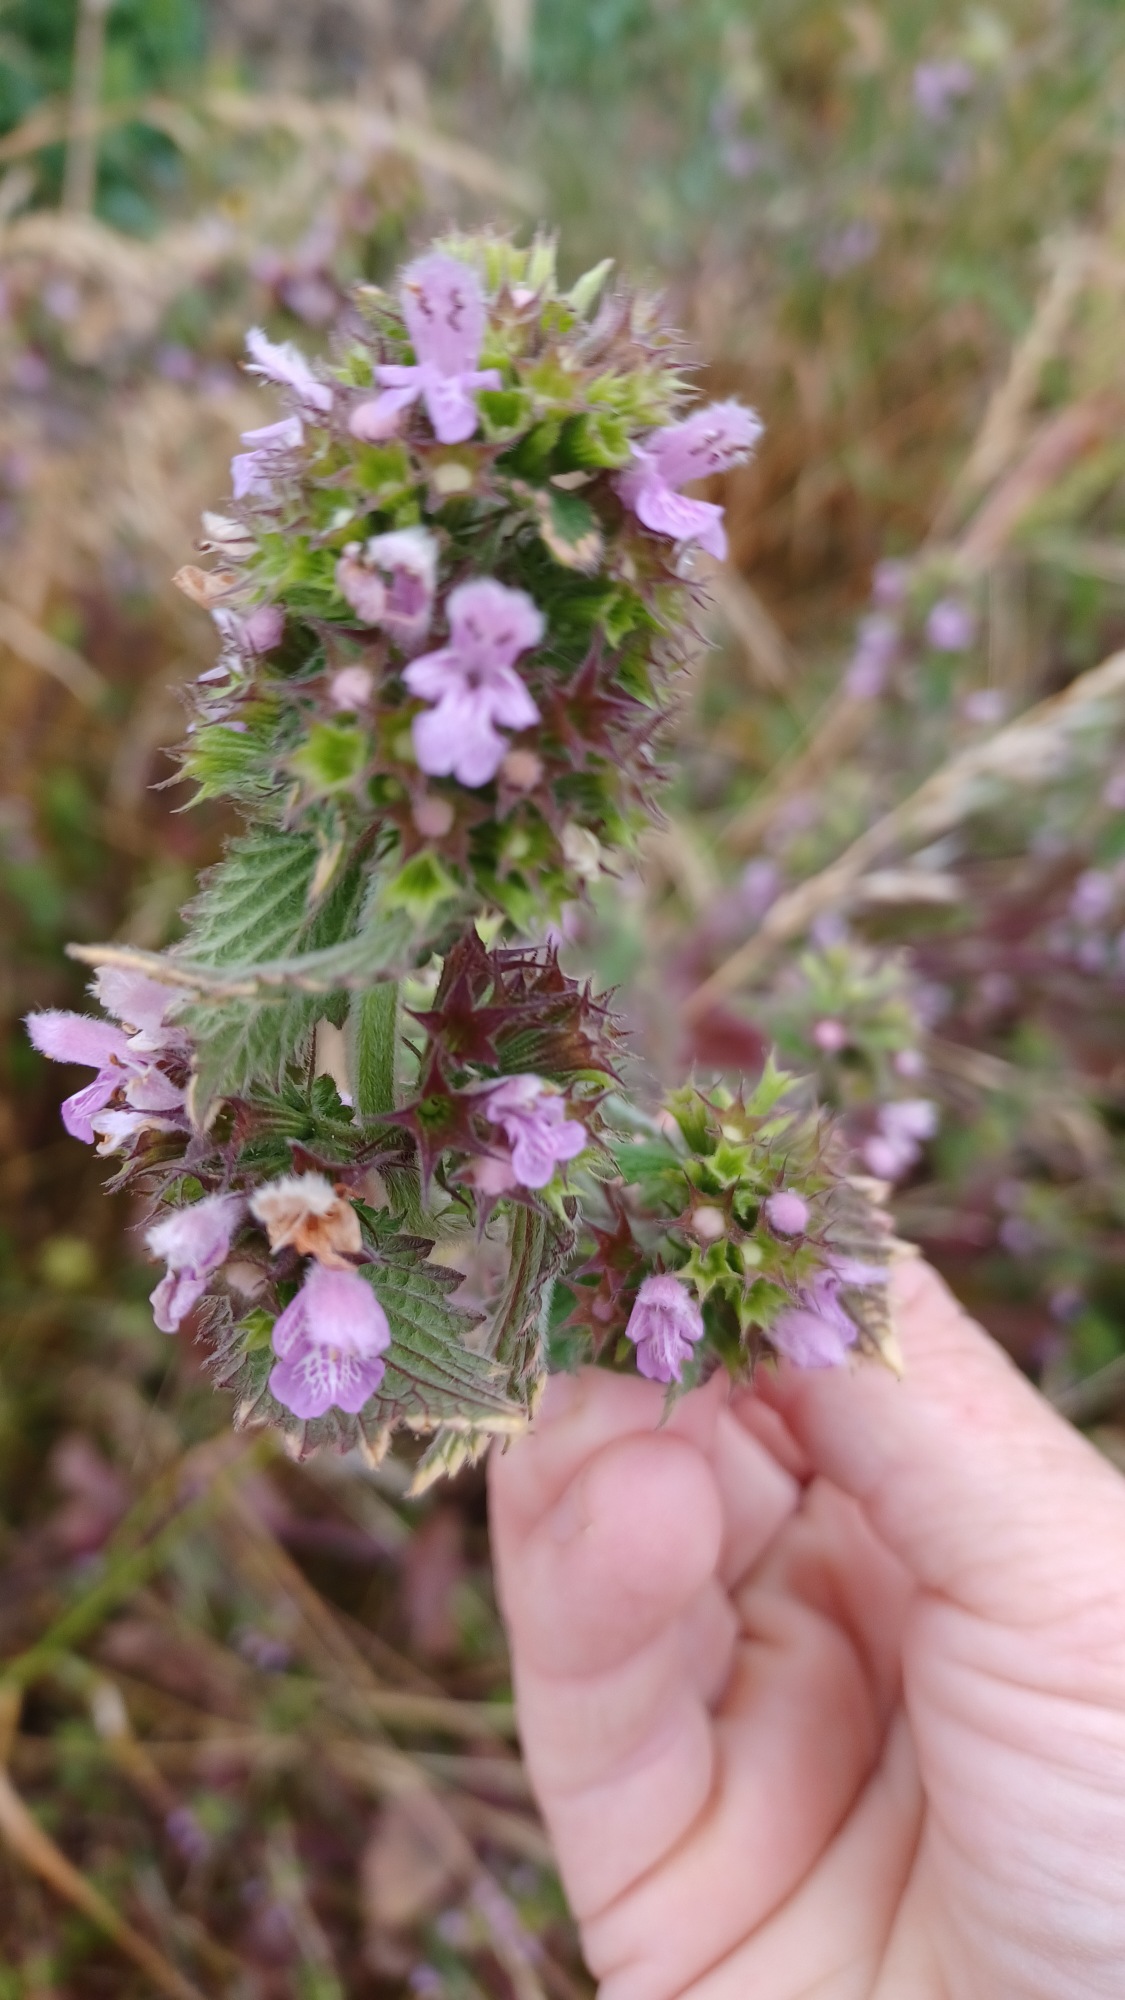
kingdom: Plantae
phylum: Tracheophyta
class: Magnoliopsida
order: Lamiales
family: Lamiaceae
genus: Ballota
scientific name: Ballota nigra
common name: Tandbæger
